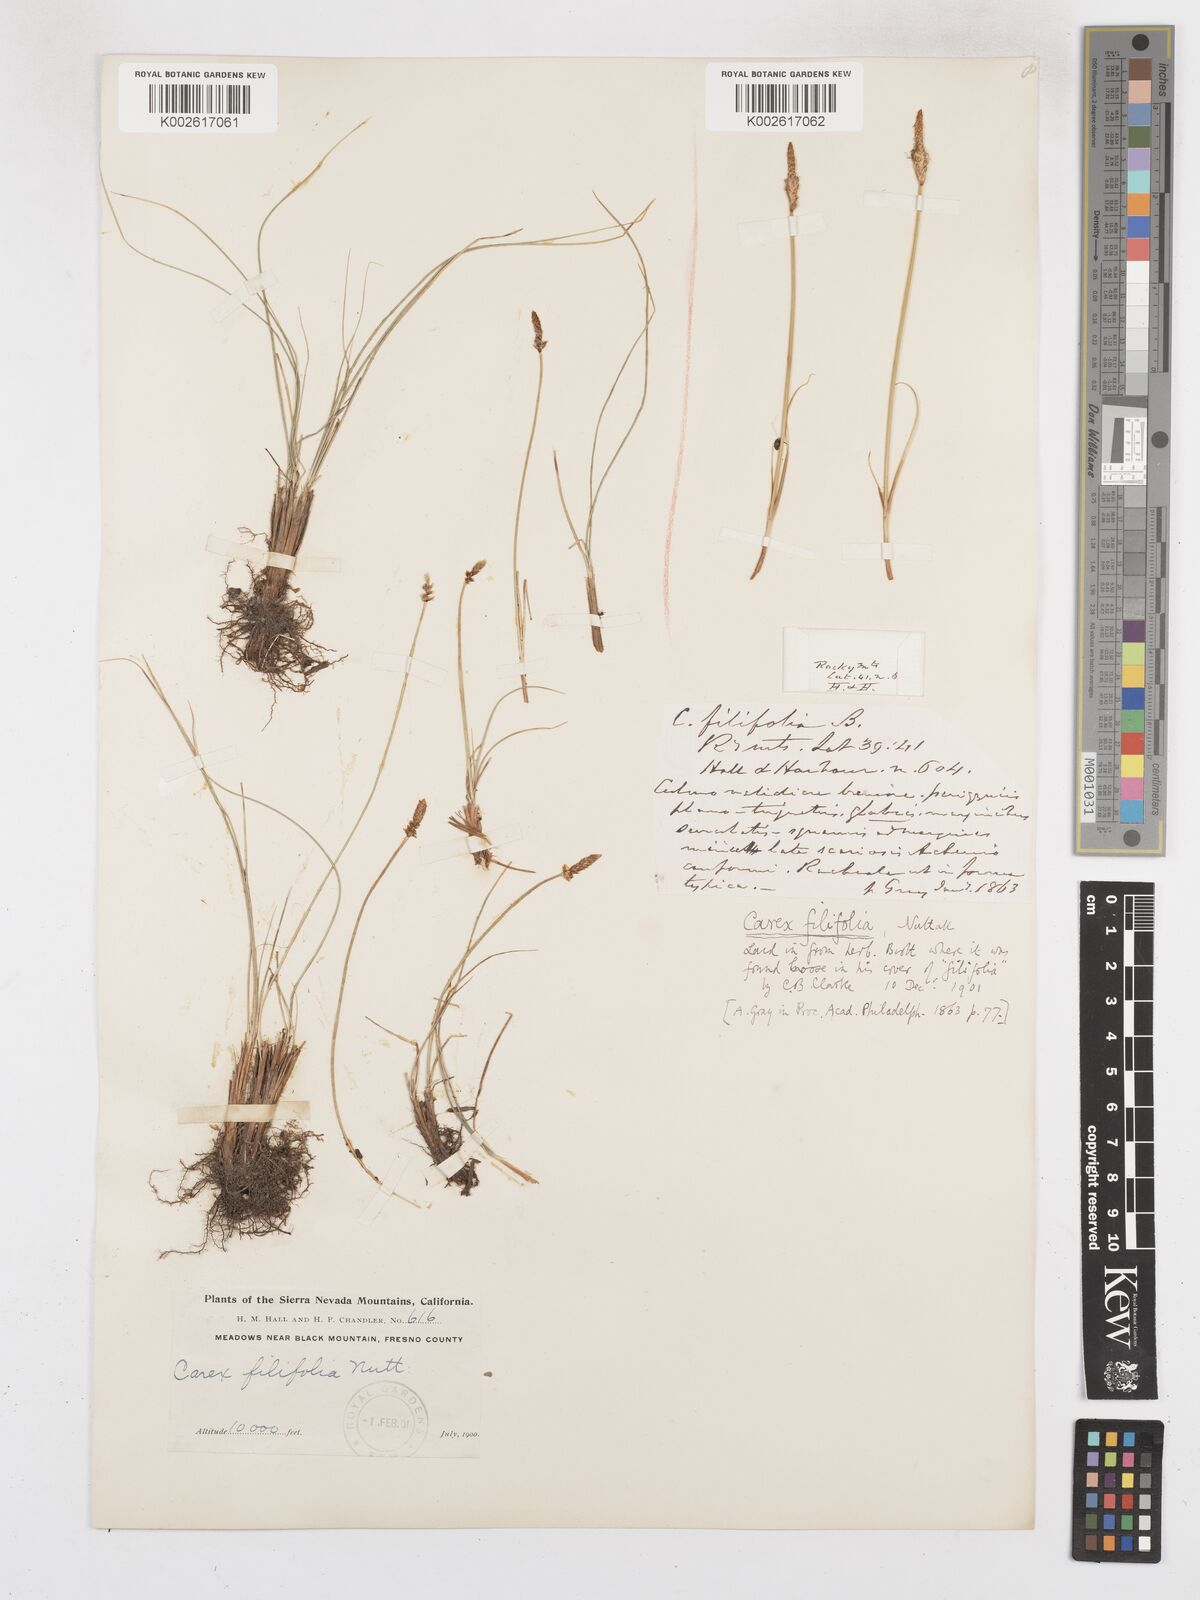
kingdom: Plantae
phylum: Tracheophyta
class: Liliopsida
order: Poales
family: Cyperaceae
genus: Carex
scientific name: Carex filifolia
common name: Threadleaf sedge
